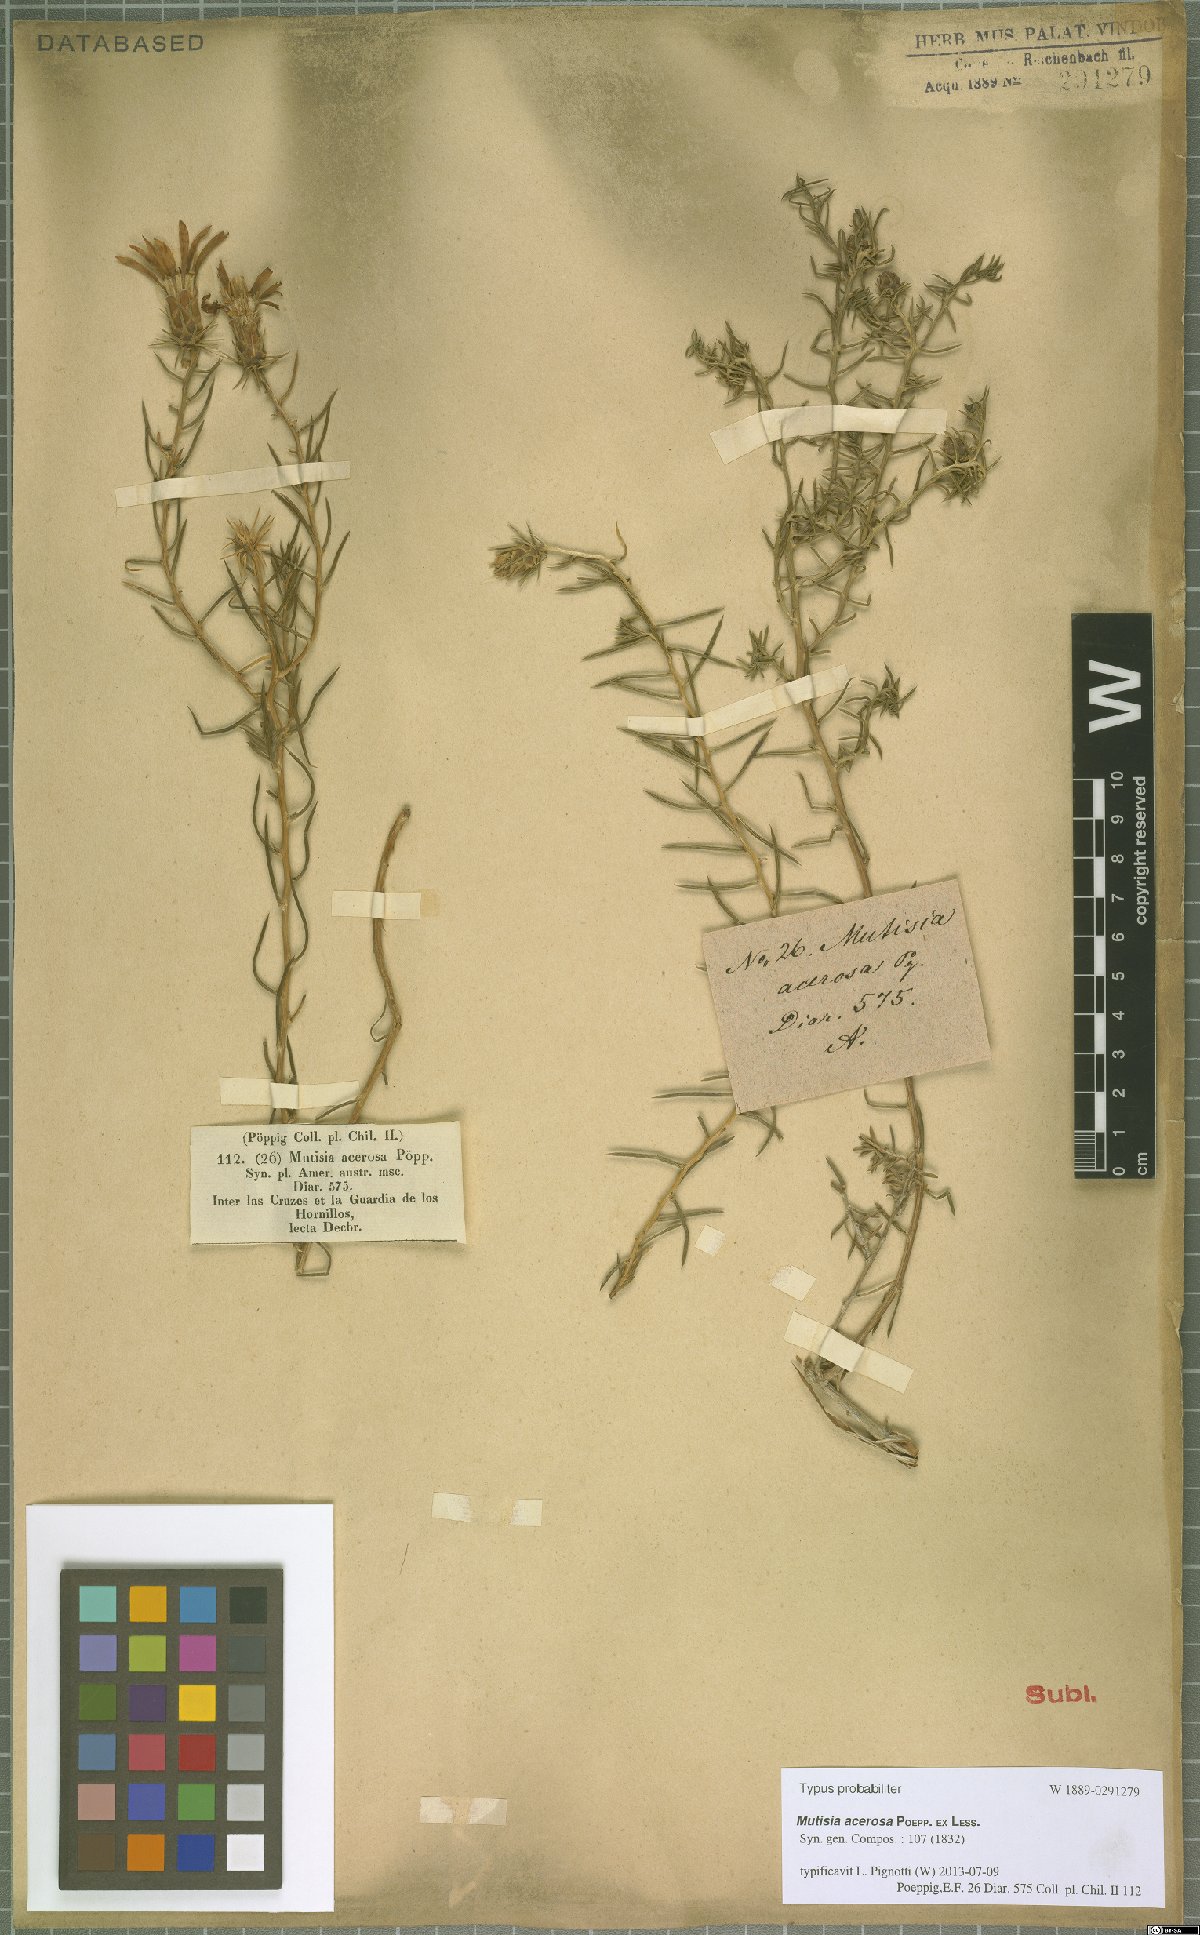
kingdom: Plantae
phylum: Tracheophyta
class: Magnoliopsida
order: Asterales
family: Asteraceae
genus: Mutisia
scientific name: Mutisia acerosa
